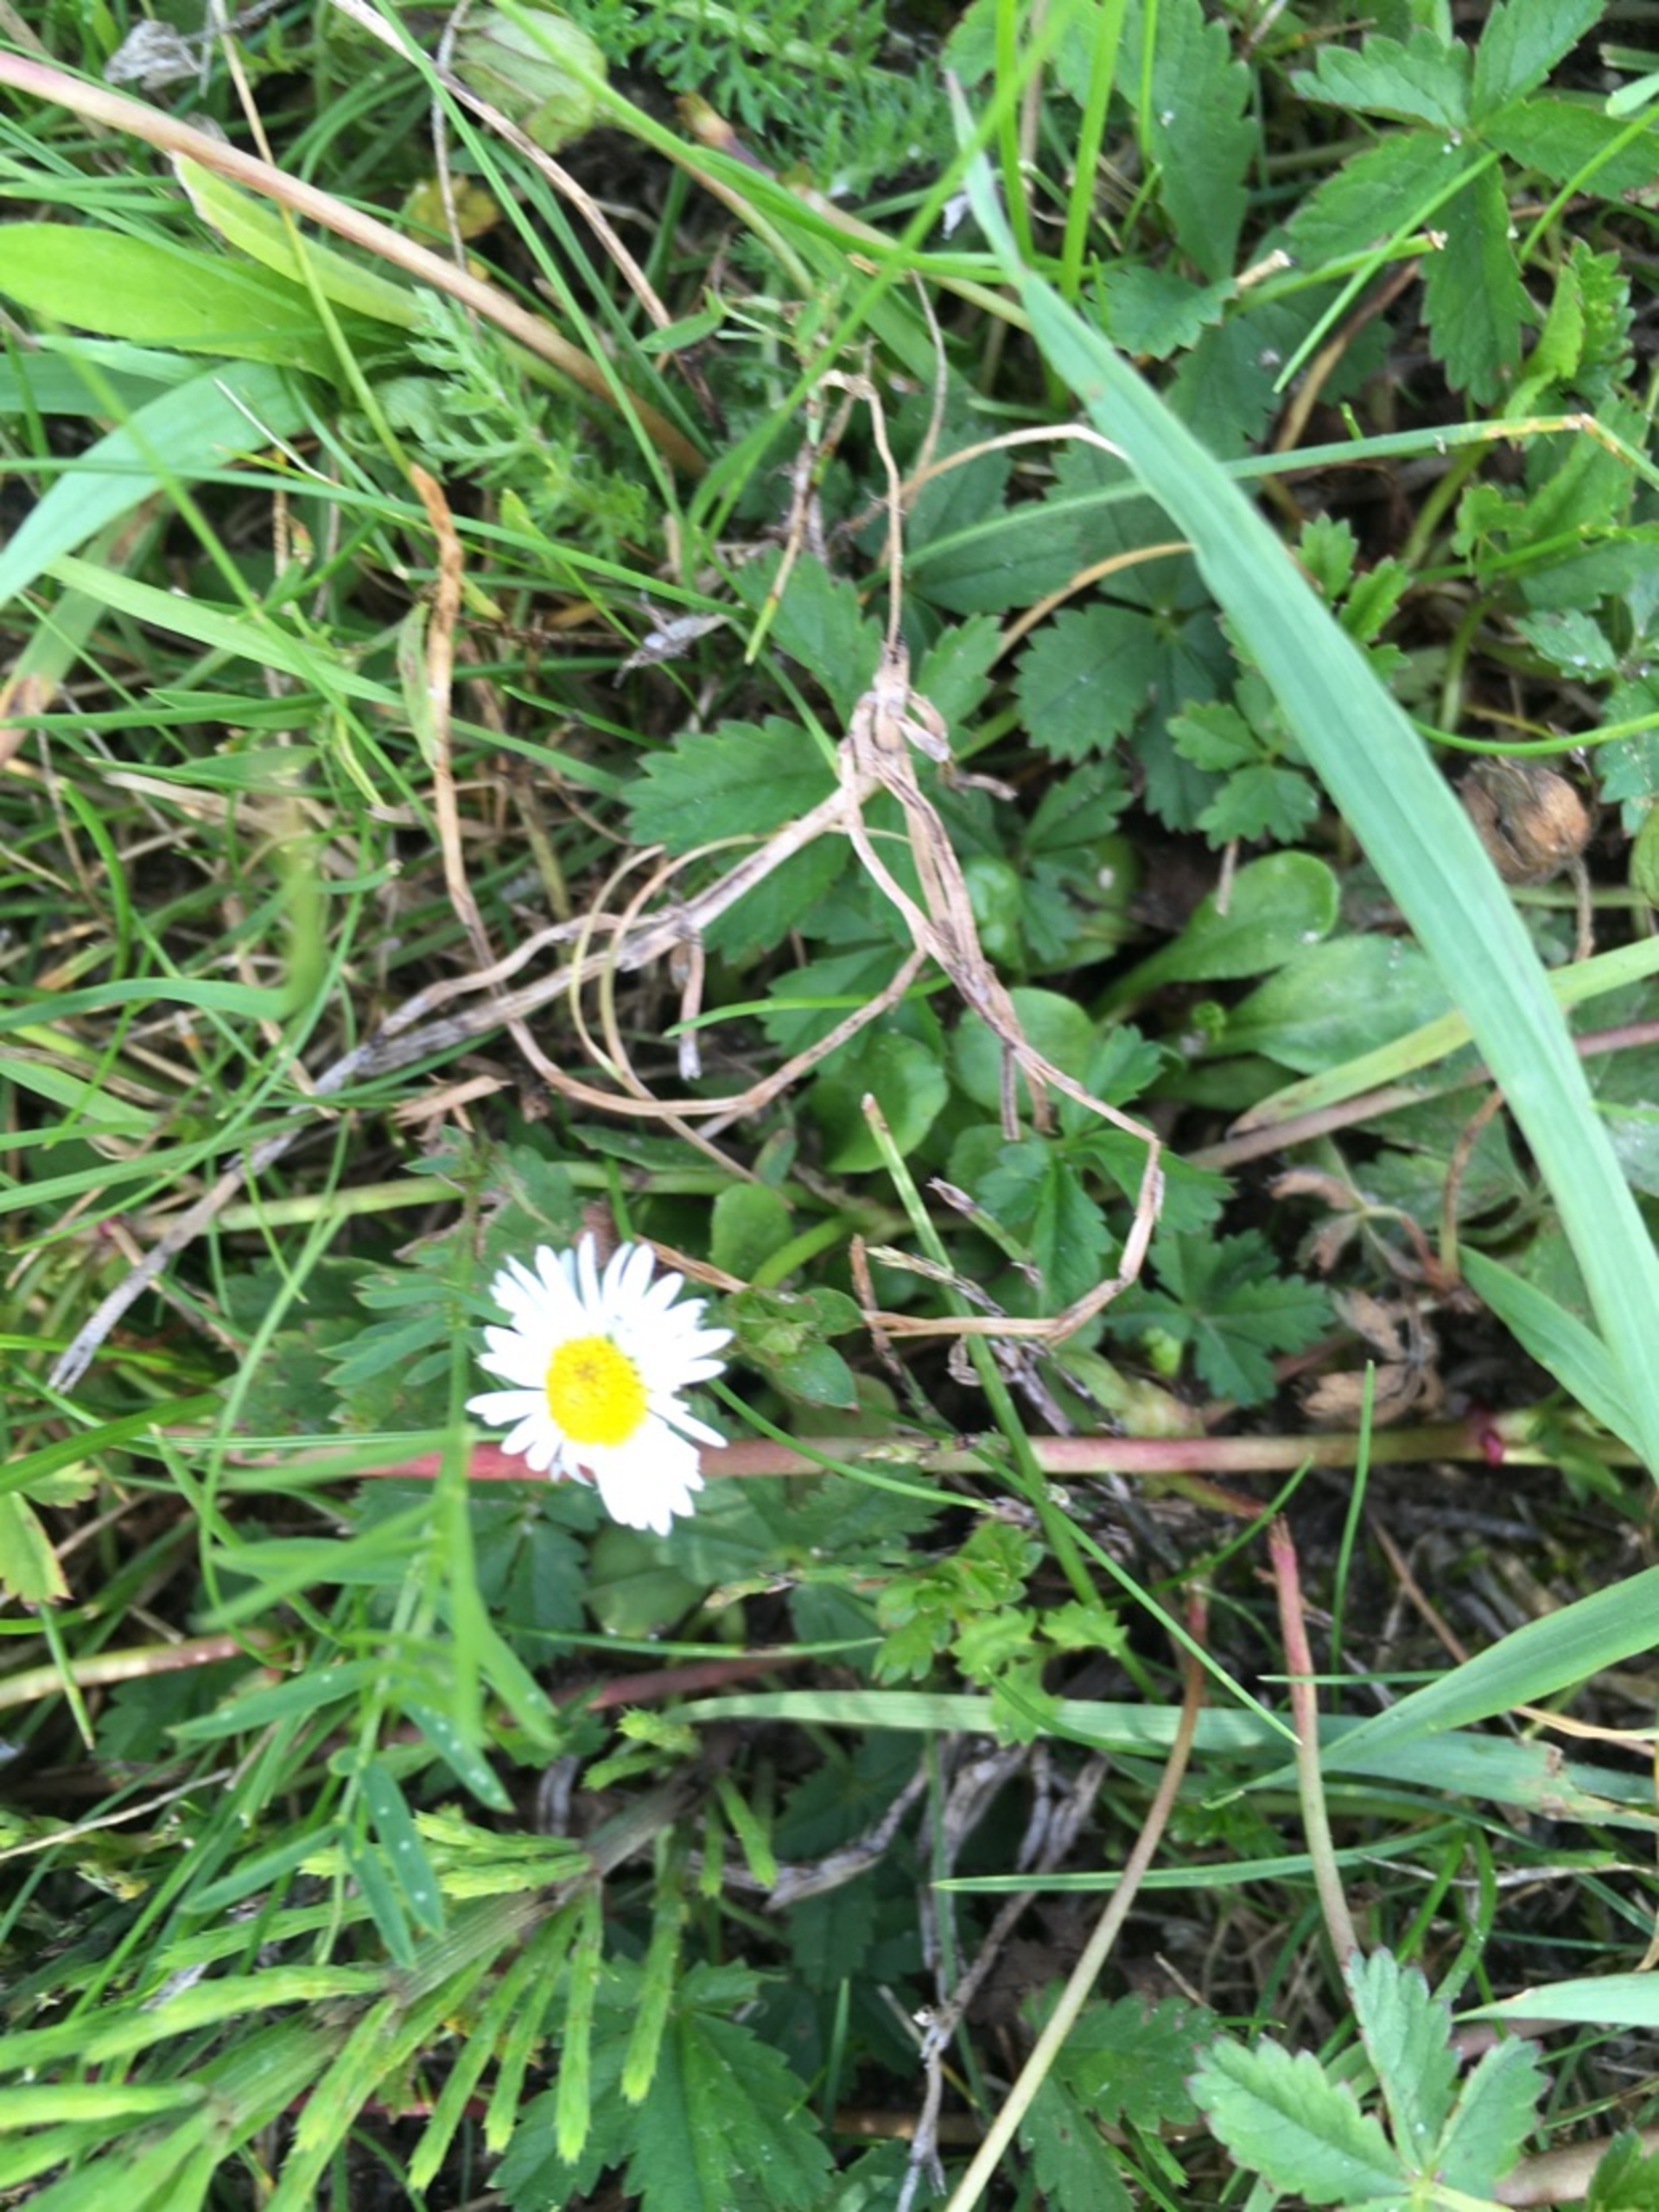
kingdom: Plantae
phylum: Tracheophyta
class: Magnoliopsida
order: Asterales
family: Asteraceae
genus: Bellis
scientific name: Bellis perennis
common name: Tusindfryd
